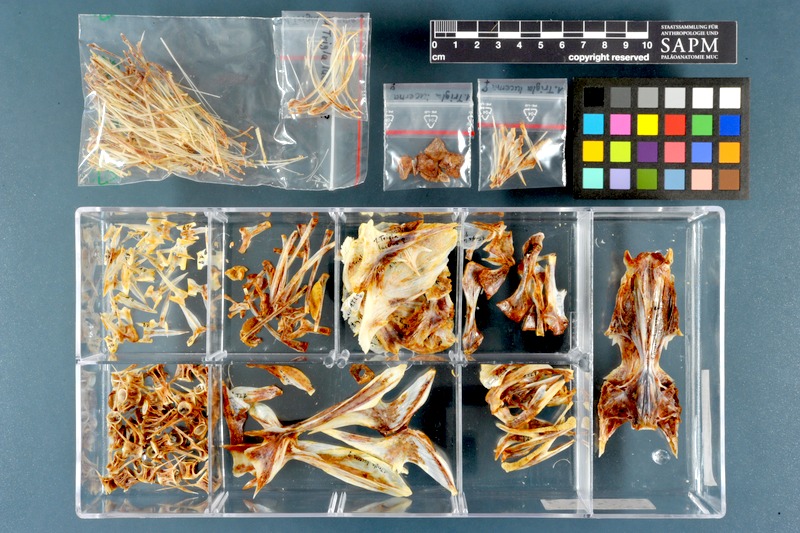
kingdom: Animalia
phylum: Chordata
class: Elasmobranchii
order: Carcharhiniformes
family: Carcharhinidae
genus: Prionace
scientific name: Prionace glauca
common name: Blue shark
